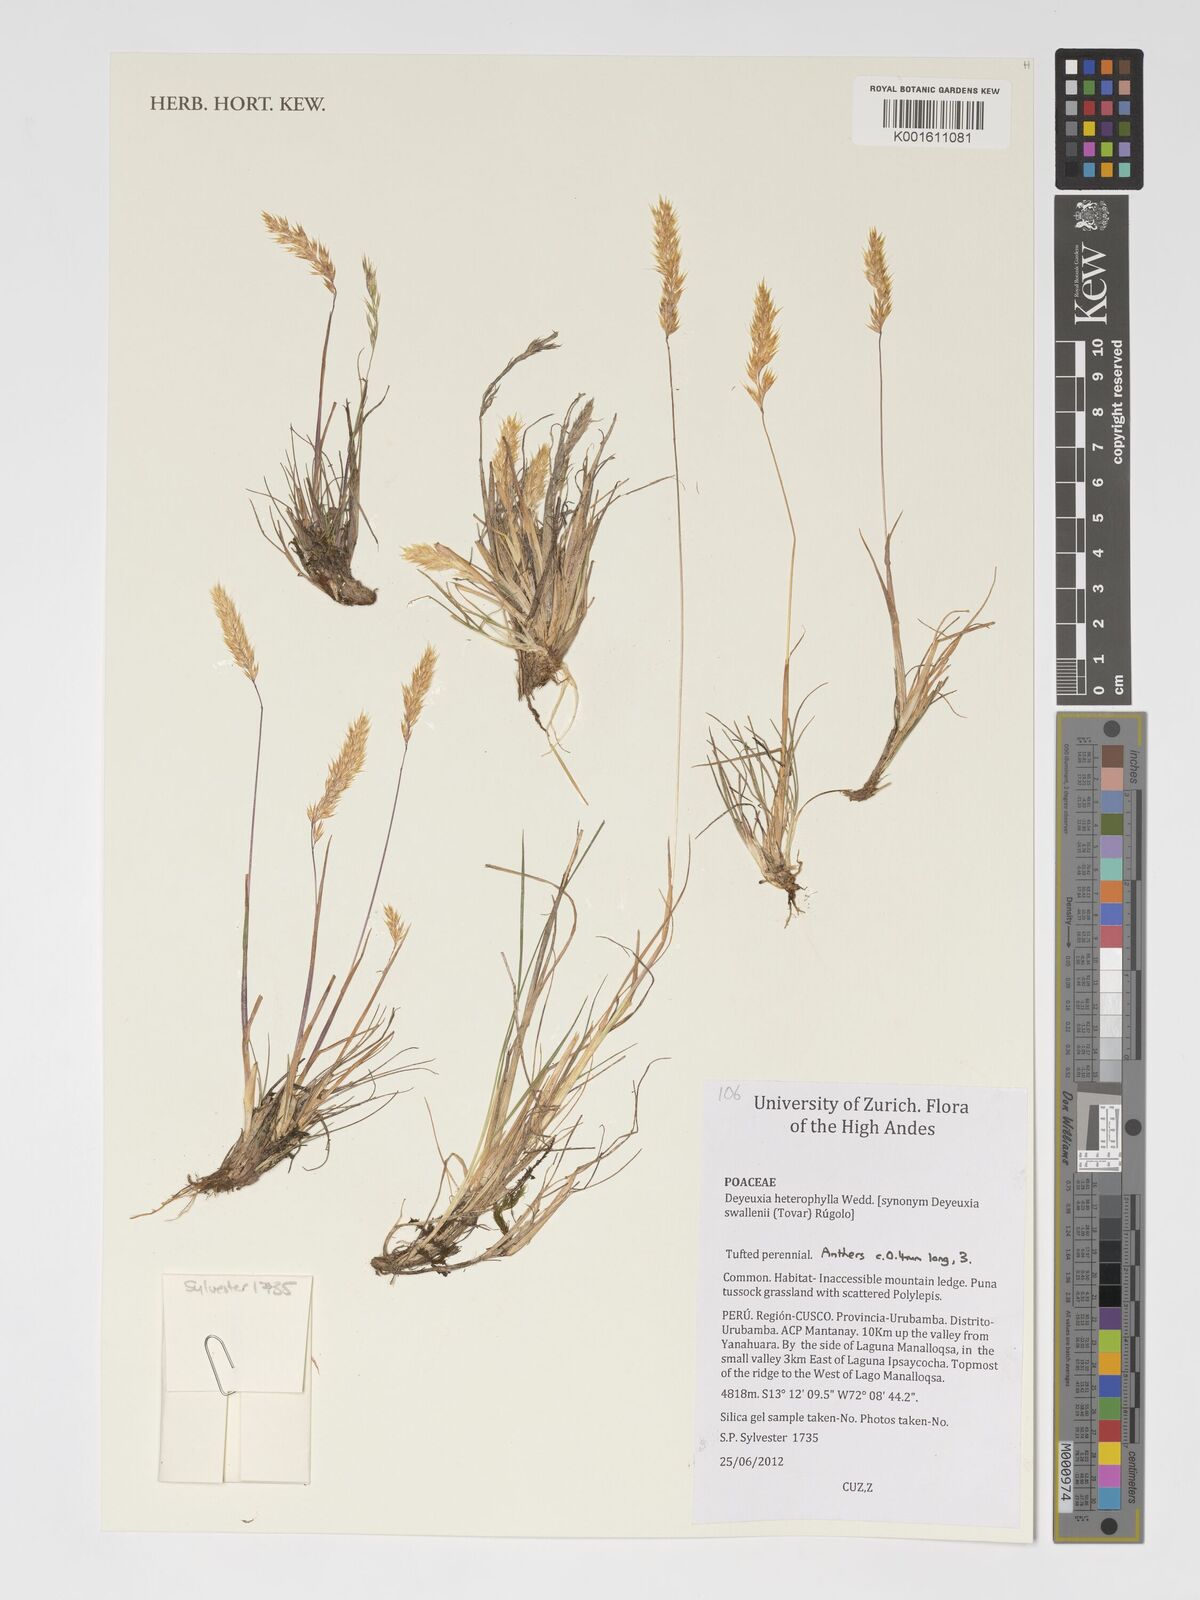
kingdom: Plantae
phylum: Tracheophyta
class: Liliopsida
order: Poales
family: Poaceae
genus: Cinnagrostis
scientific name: Cinnagrostis heterophylla
